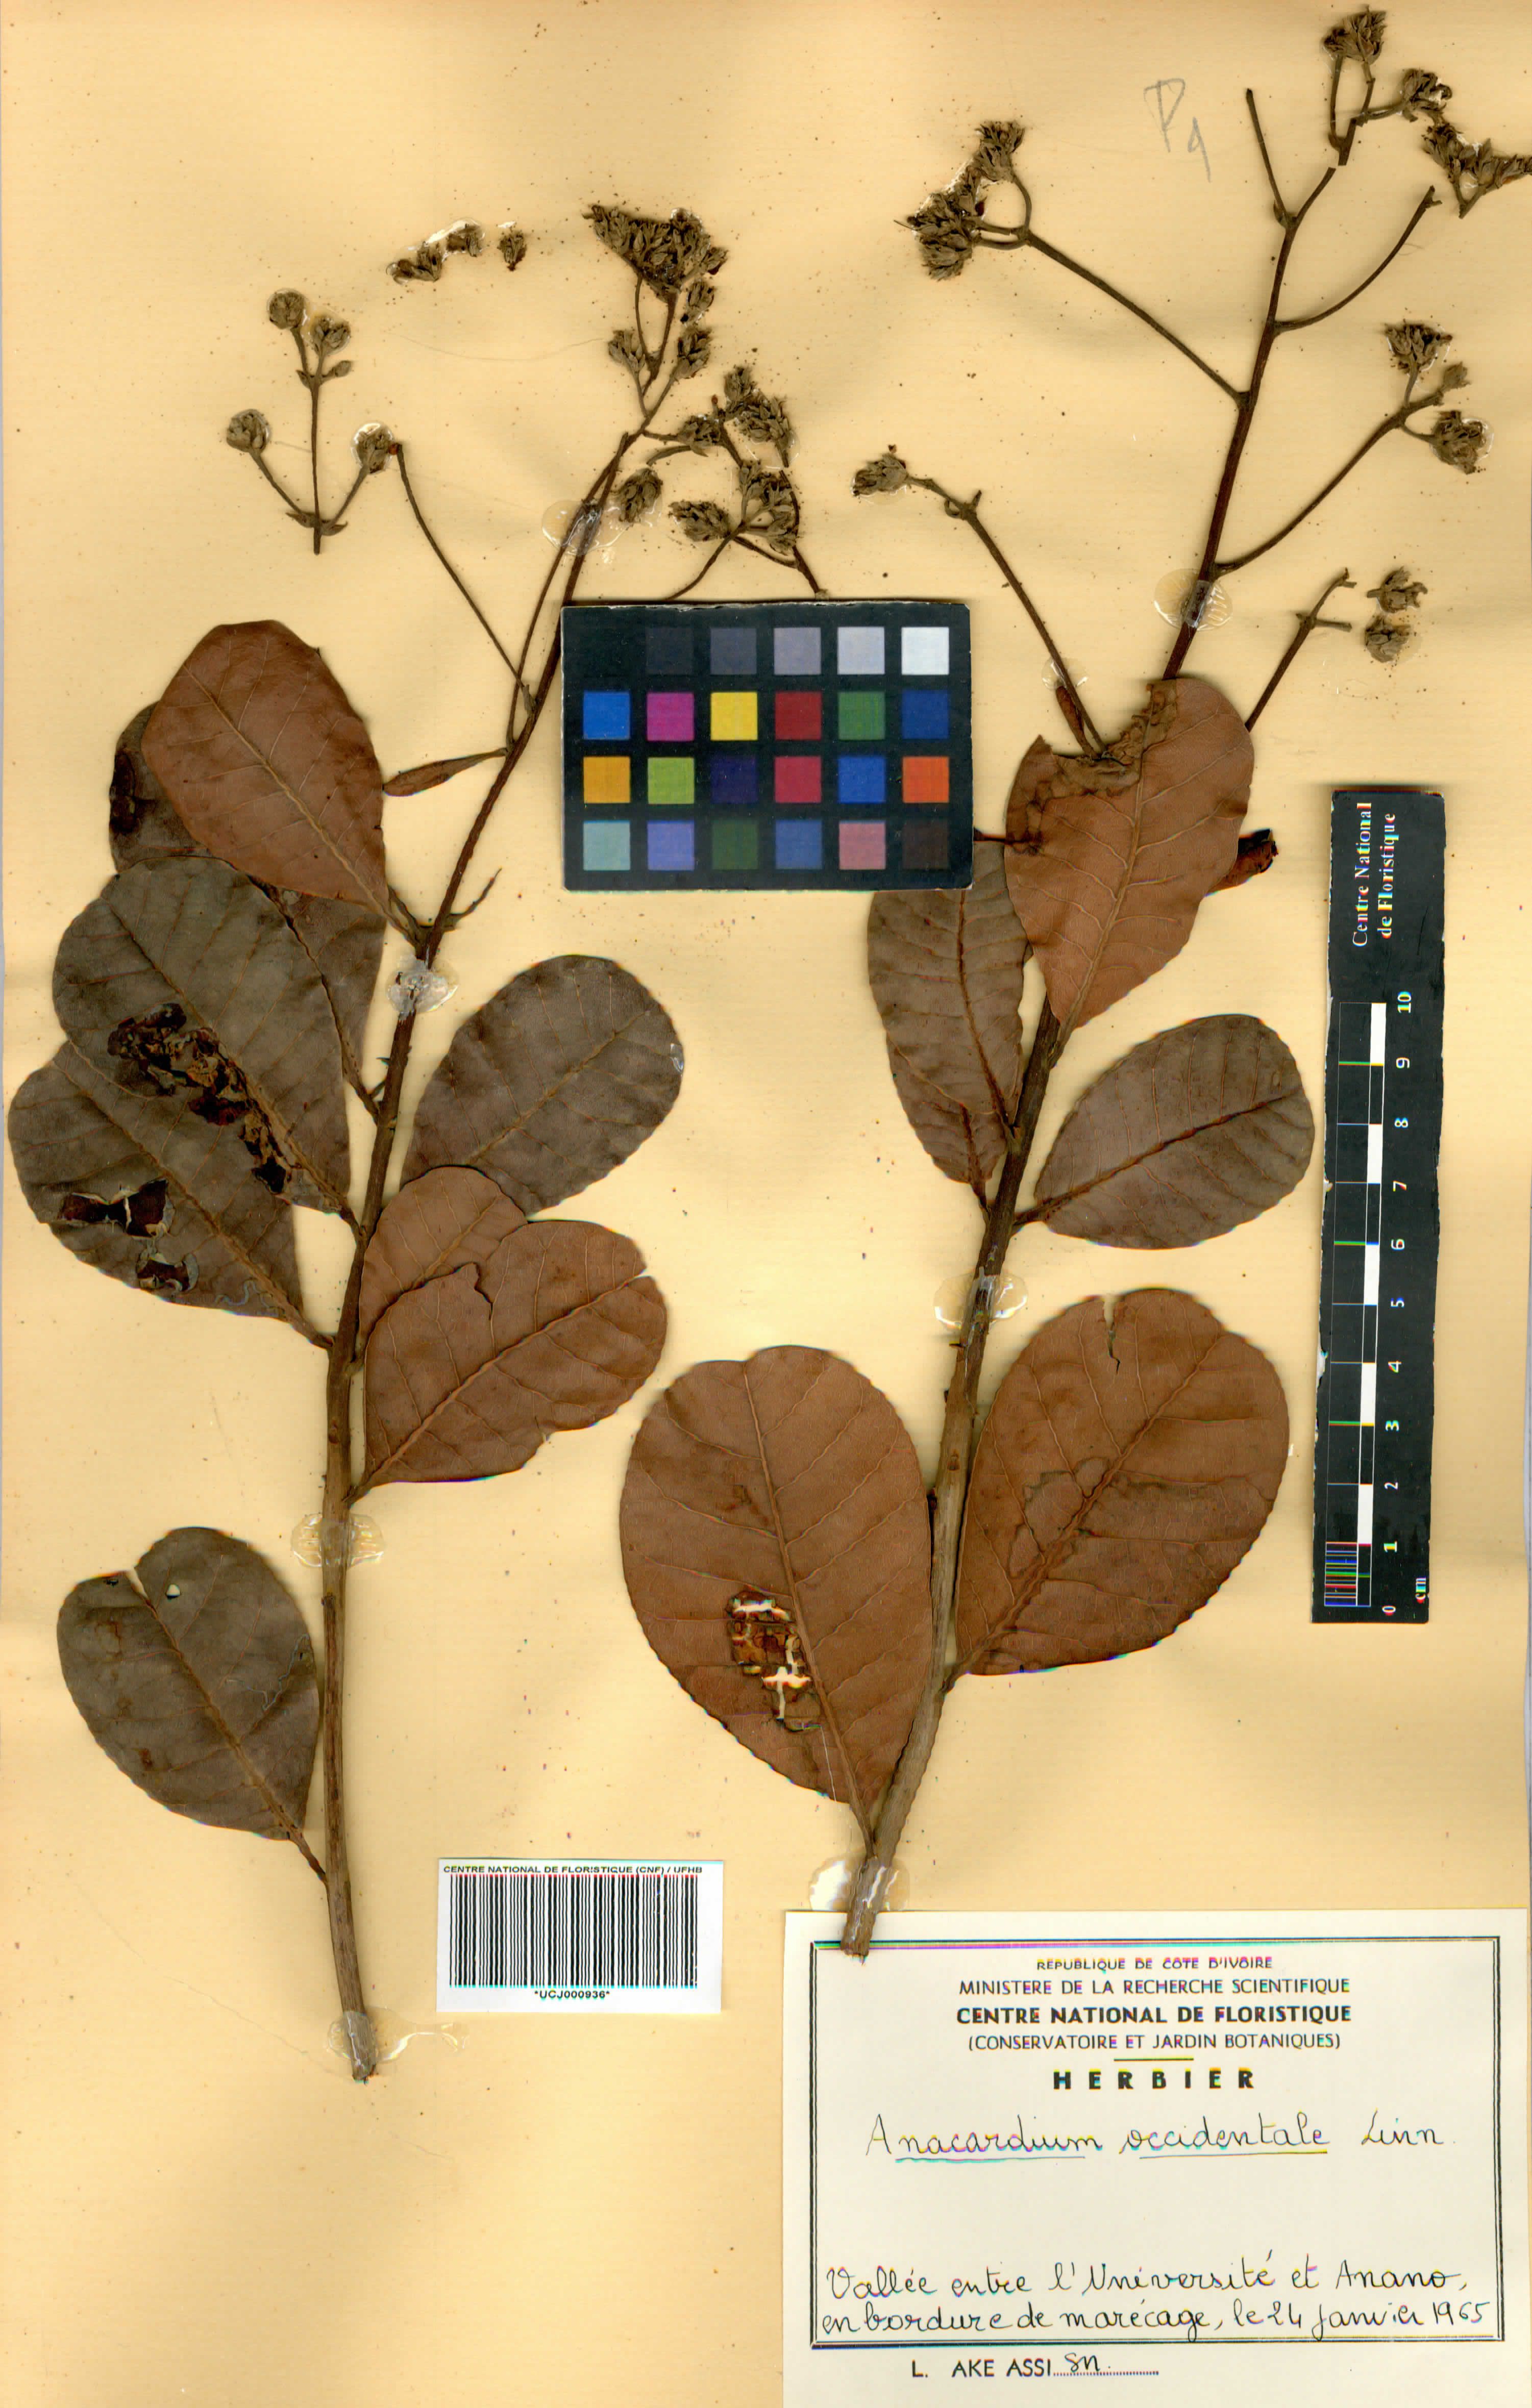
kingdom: Plantae
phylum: Tracheophyta
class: Magnoliopsida
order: Sapindales
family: Anacardiaceae
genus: Anacardium
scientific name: Anacardium occidentale
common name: Cashew
